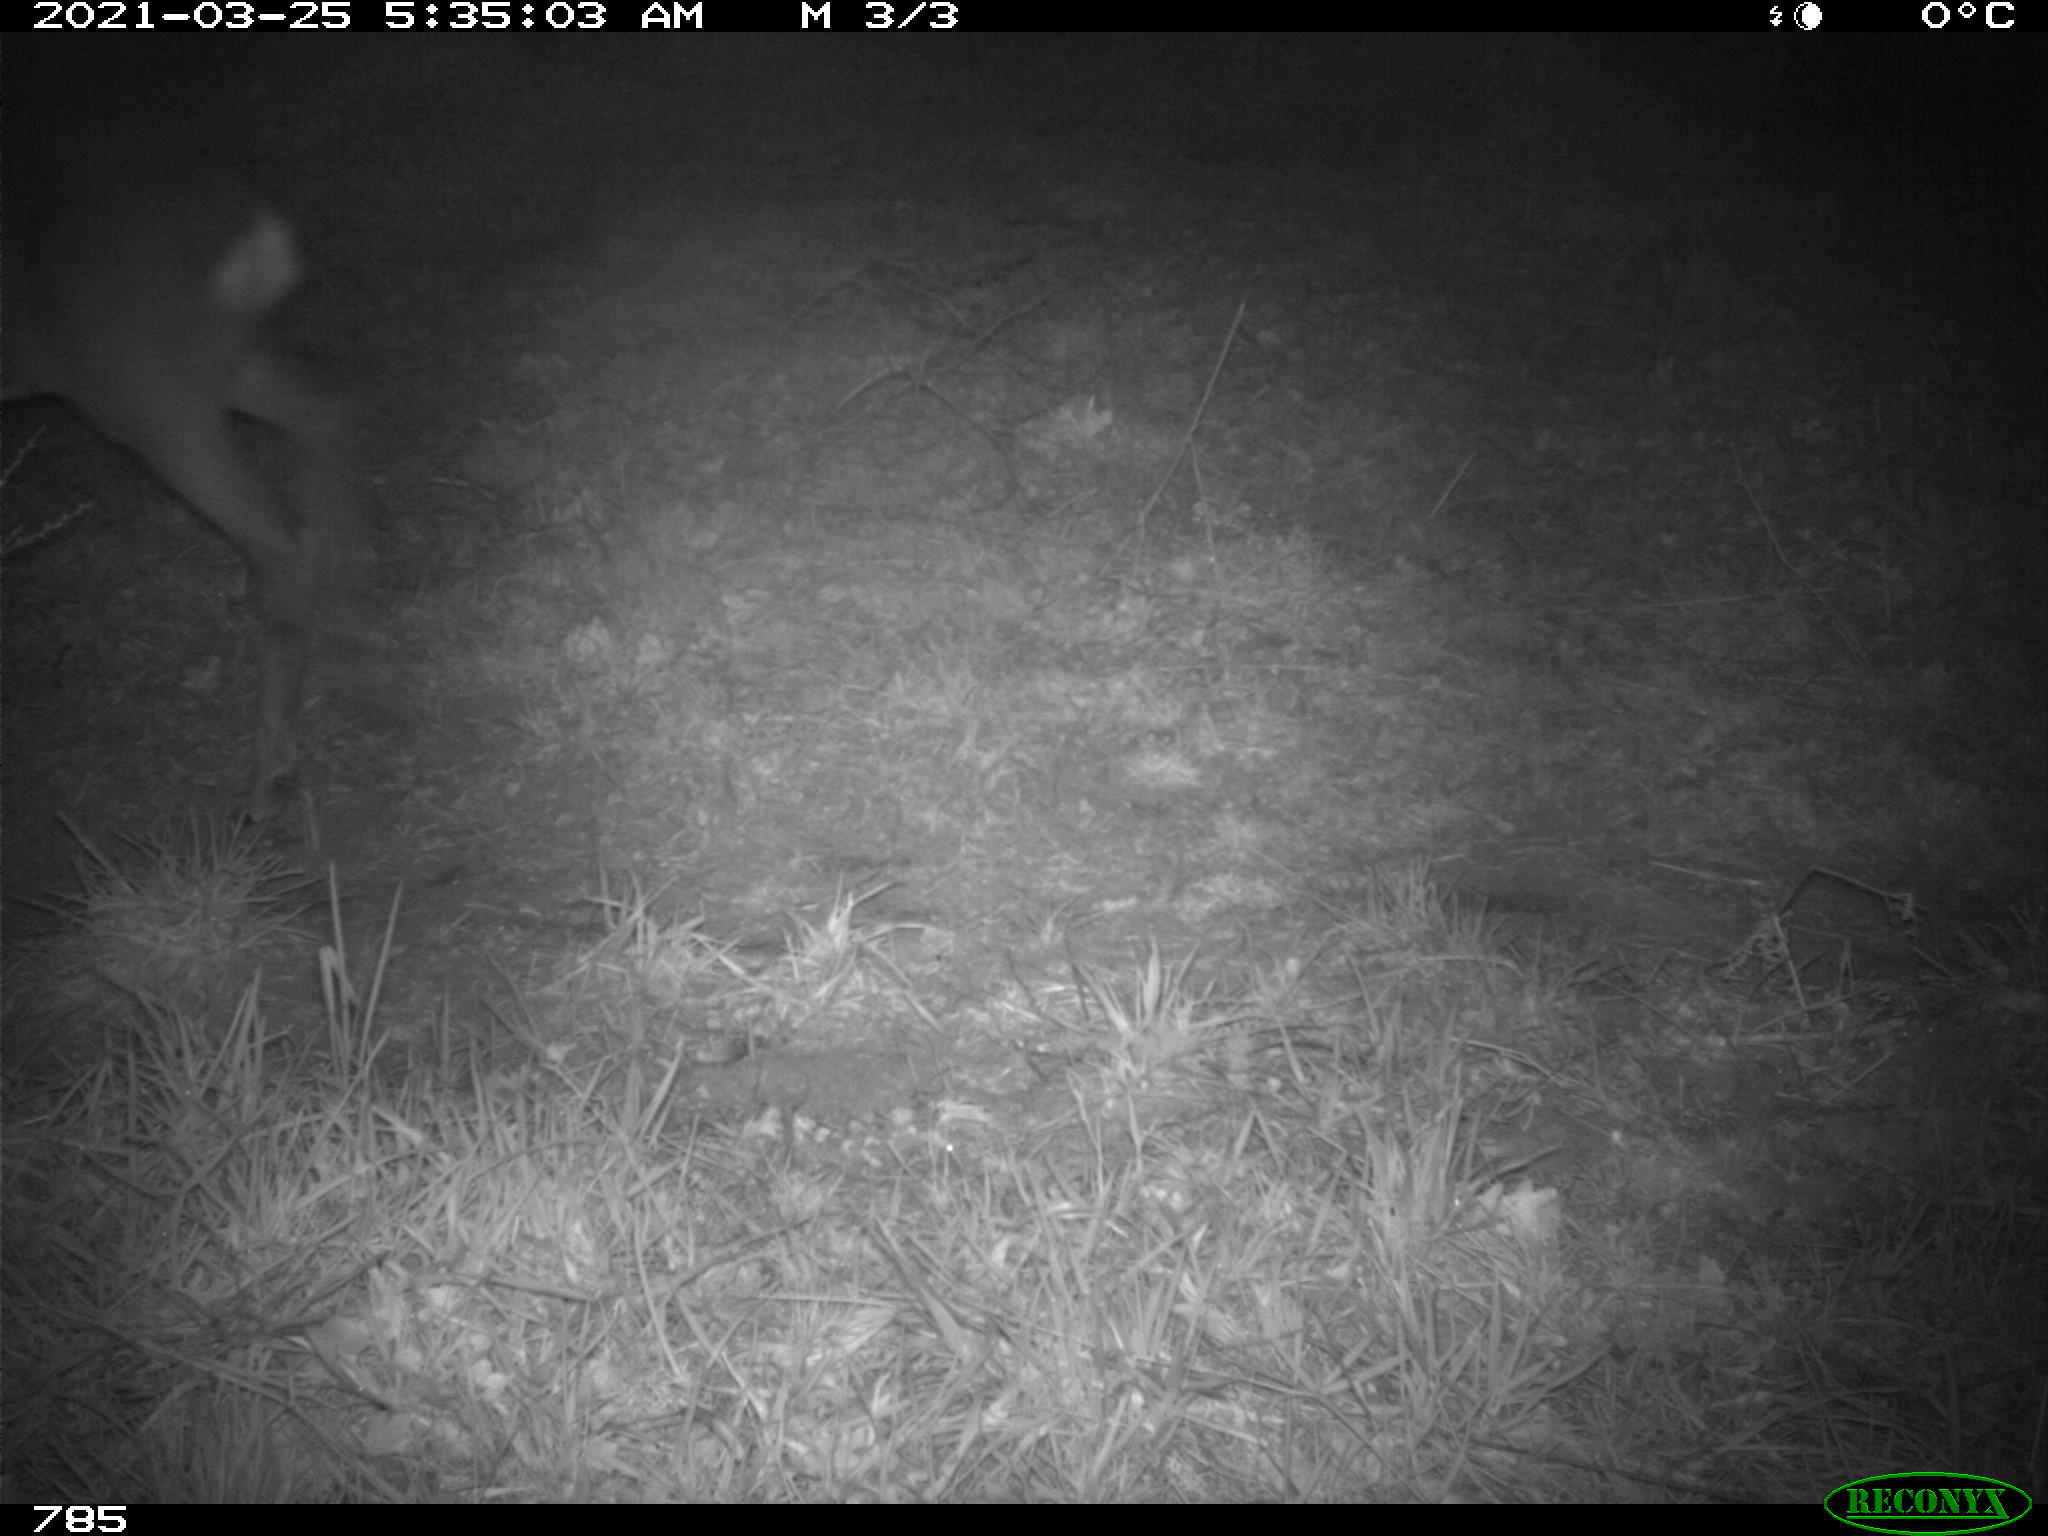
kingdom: Animalia
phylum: Chordata
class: Mammalia
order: Artiodactyla
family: Cervidae
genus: Capreolus
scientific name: Capreolus capreolus
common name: Western roe deer
